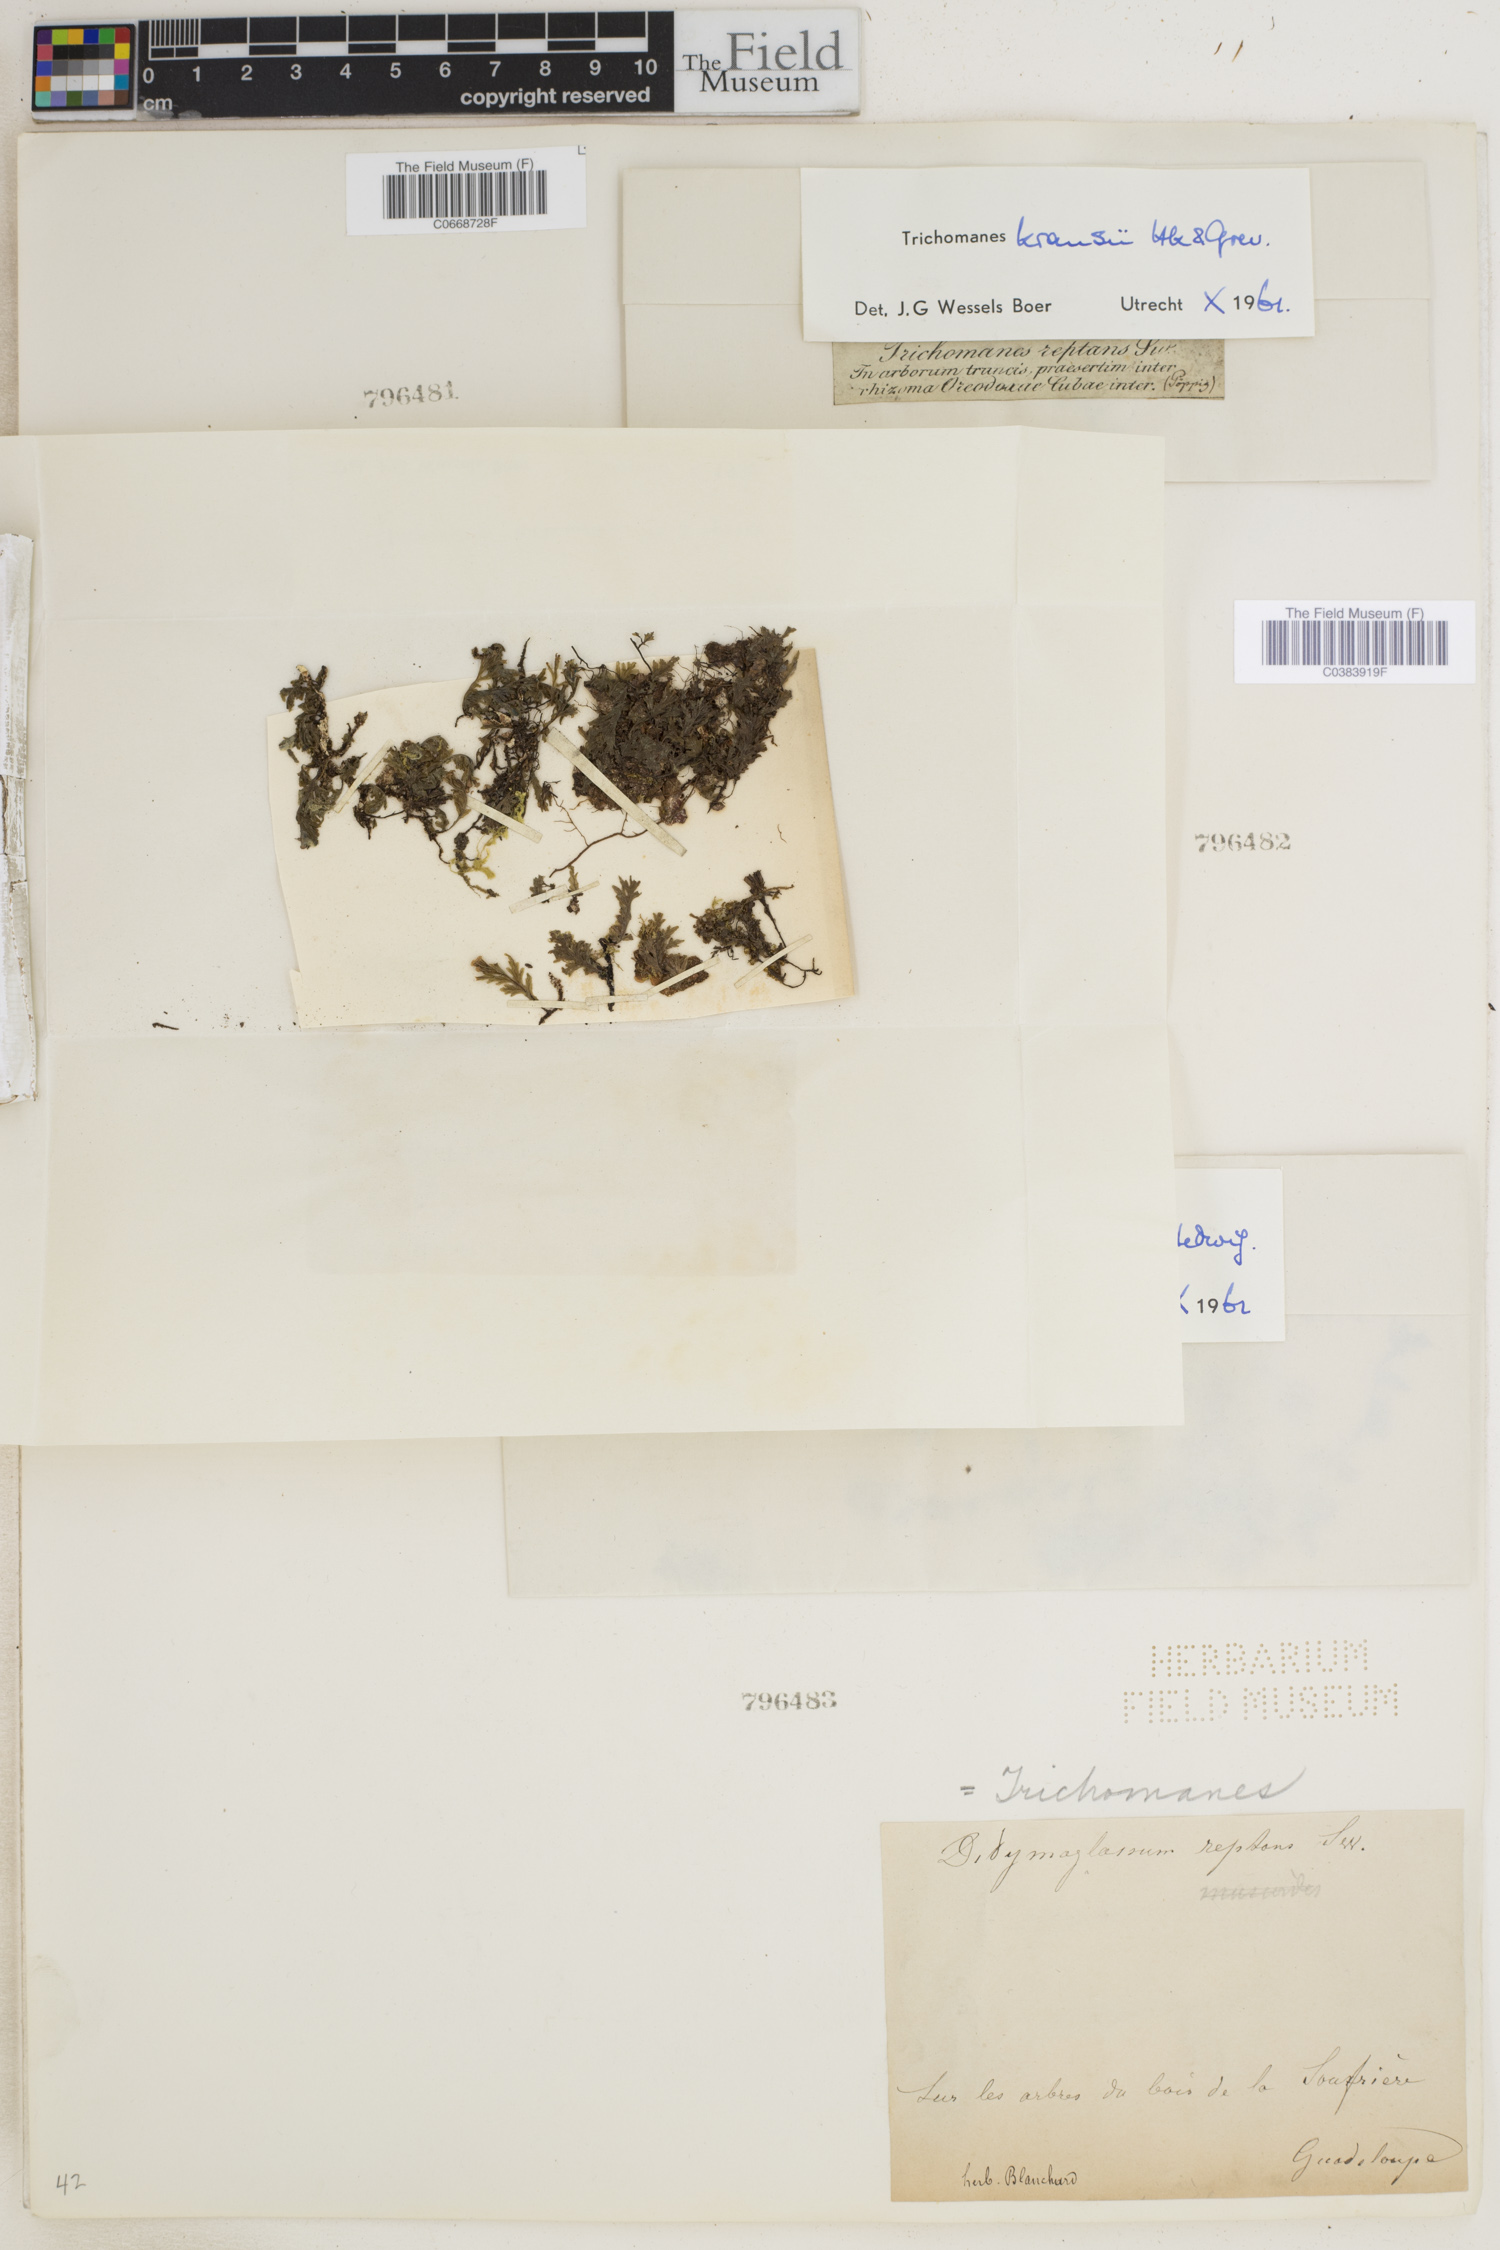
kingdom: Plantae
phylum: Tracheophyta
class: Polypodiopsida
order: Hymenophyllales
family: Hymenophyllaceae
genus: Didymoglossum
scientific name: Didymoglossum kraussii
